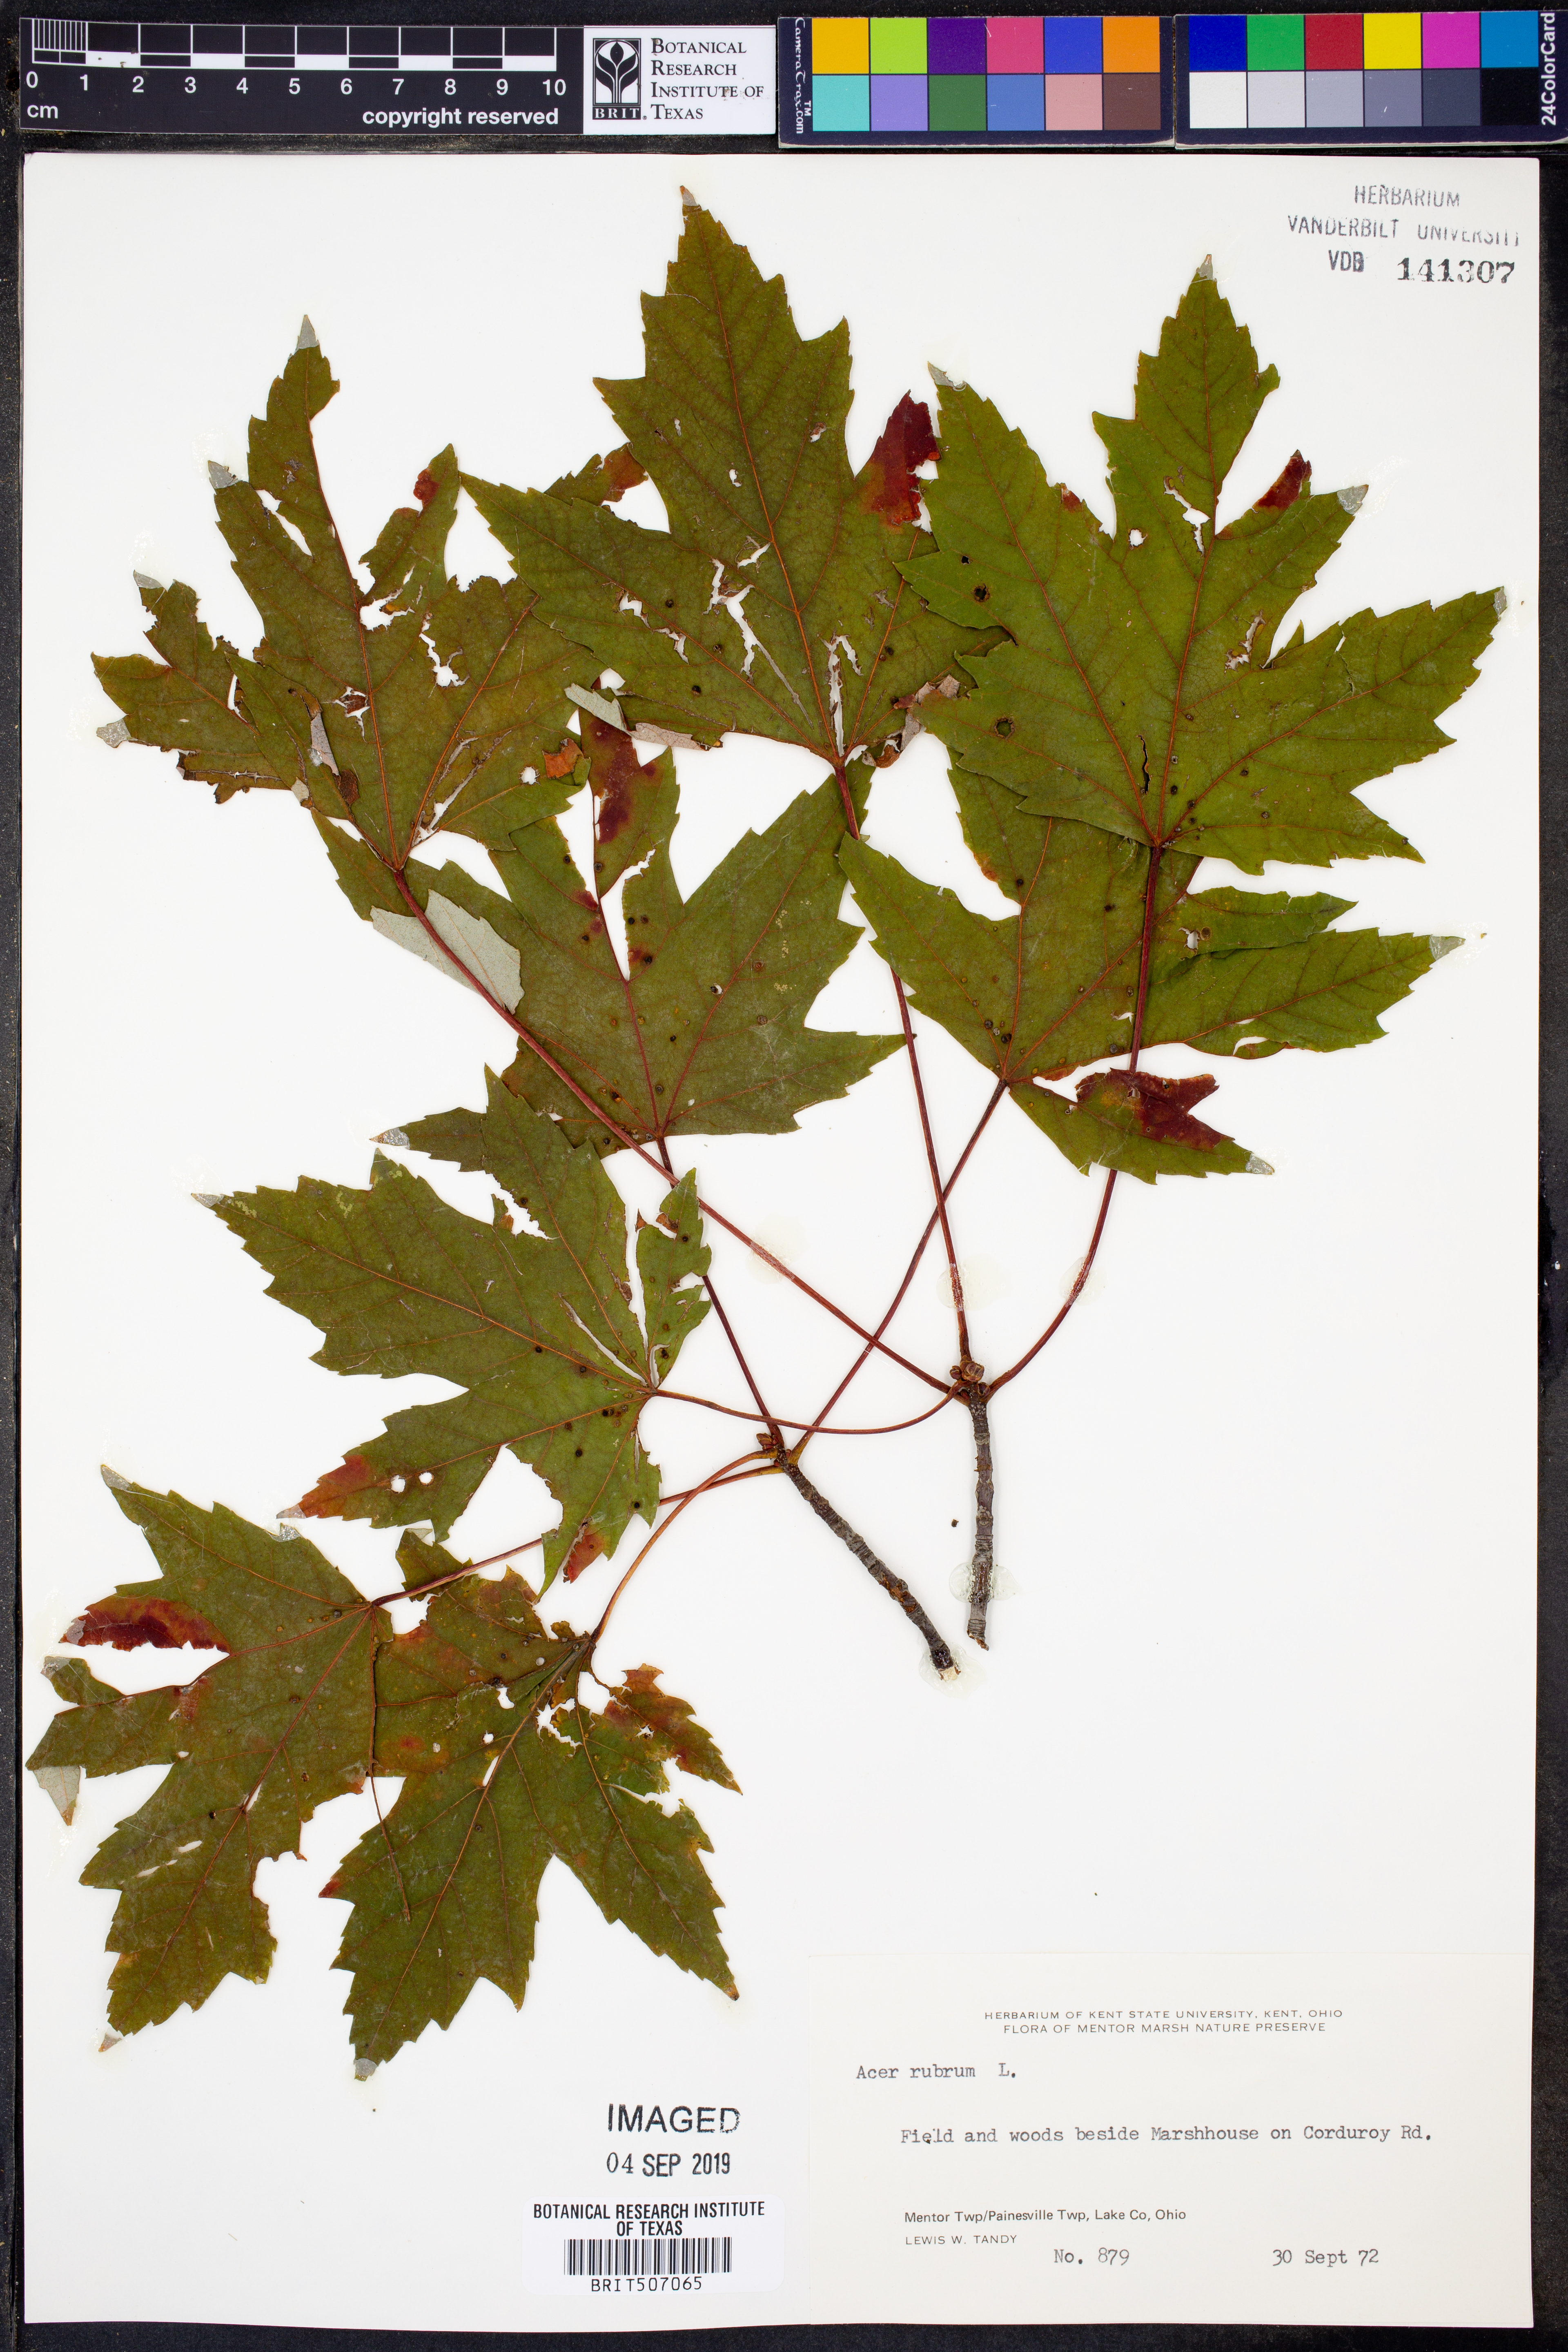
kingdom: Plantae
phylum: Tracheophyta
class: Magnoliopsida
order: Sapindales
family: Sapindaceae
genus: Acer
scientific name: Acer rubrum
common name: Red maple
